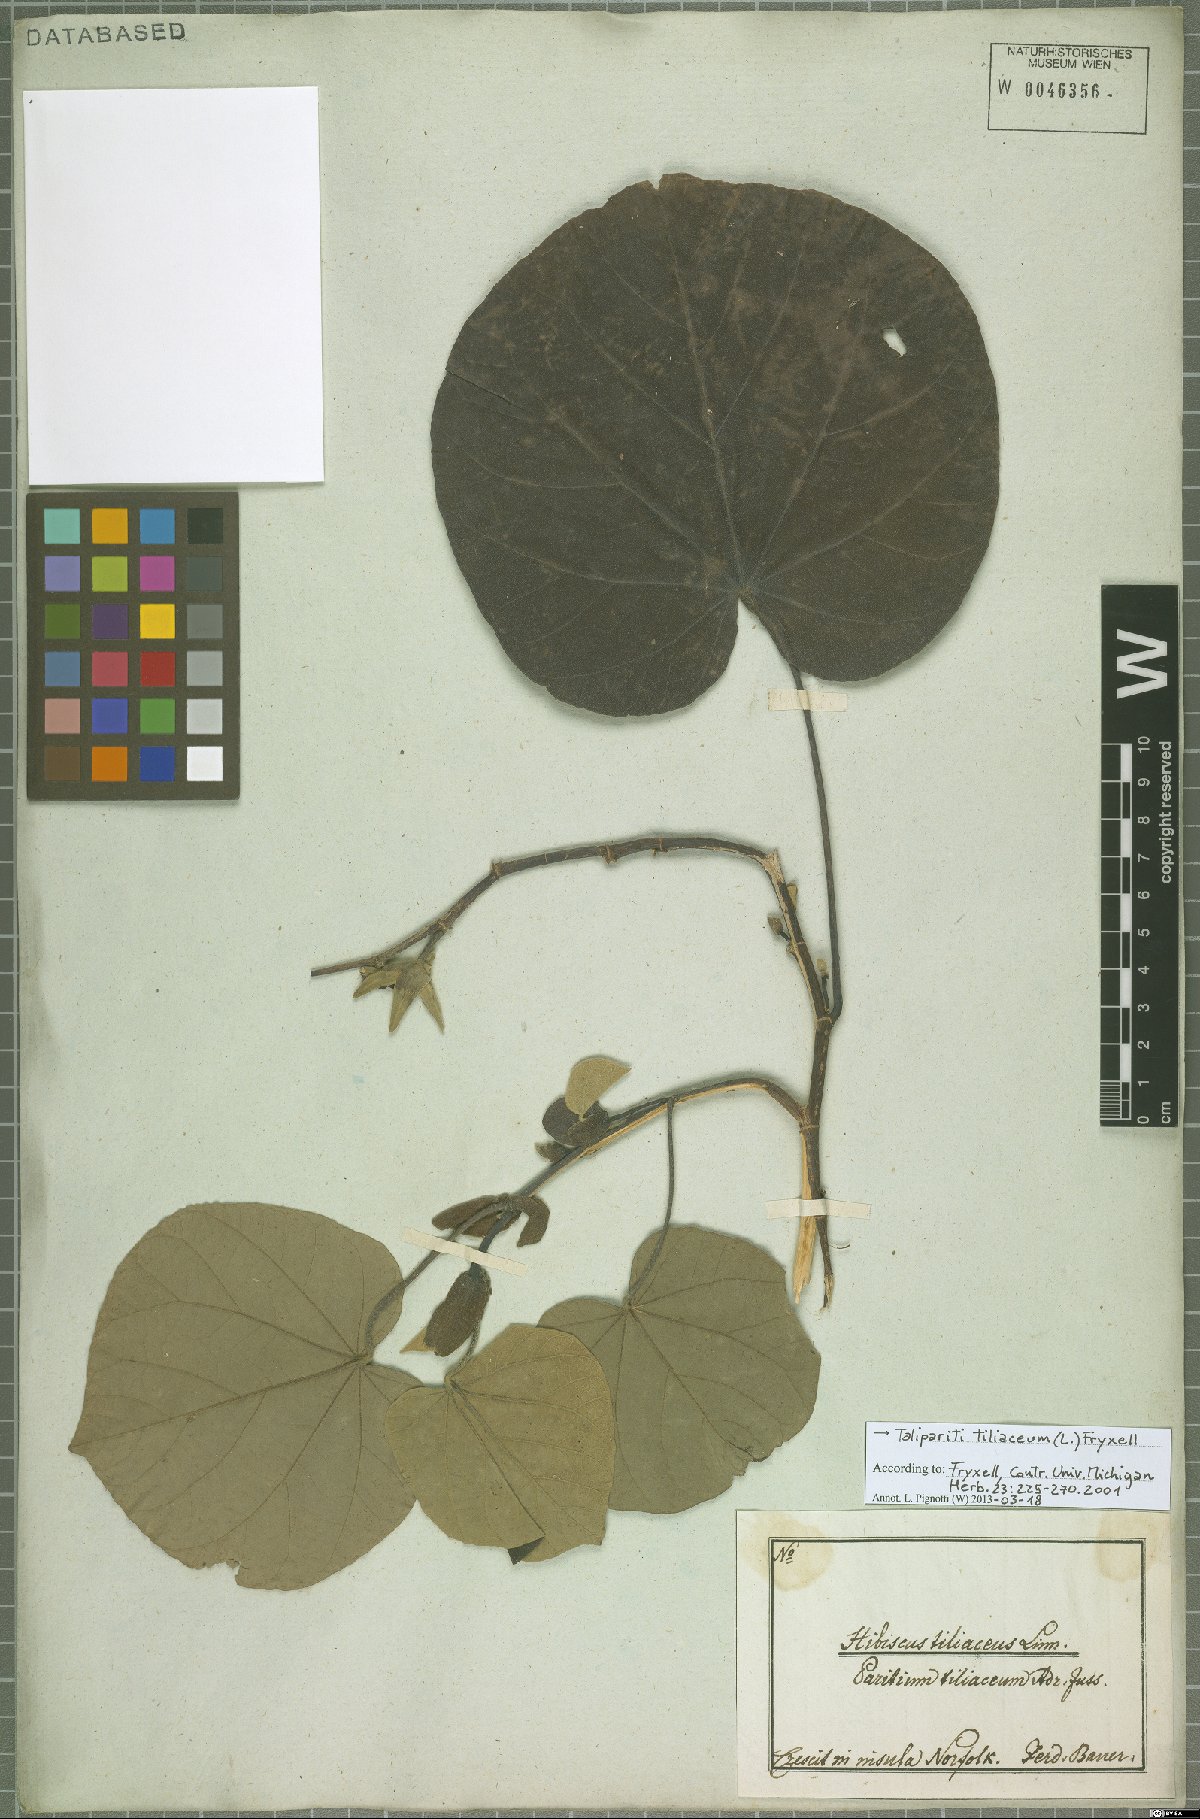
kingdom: Plantae
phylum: Tracheophyta
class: Magnoliopsida
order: Malvales
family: Malvaceae
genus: Talipariti
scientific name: Talipariti tiliaceum
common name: Sea hibiscus
